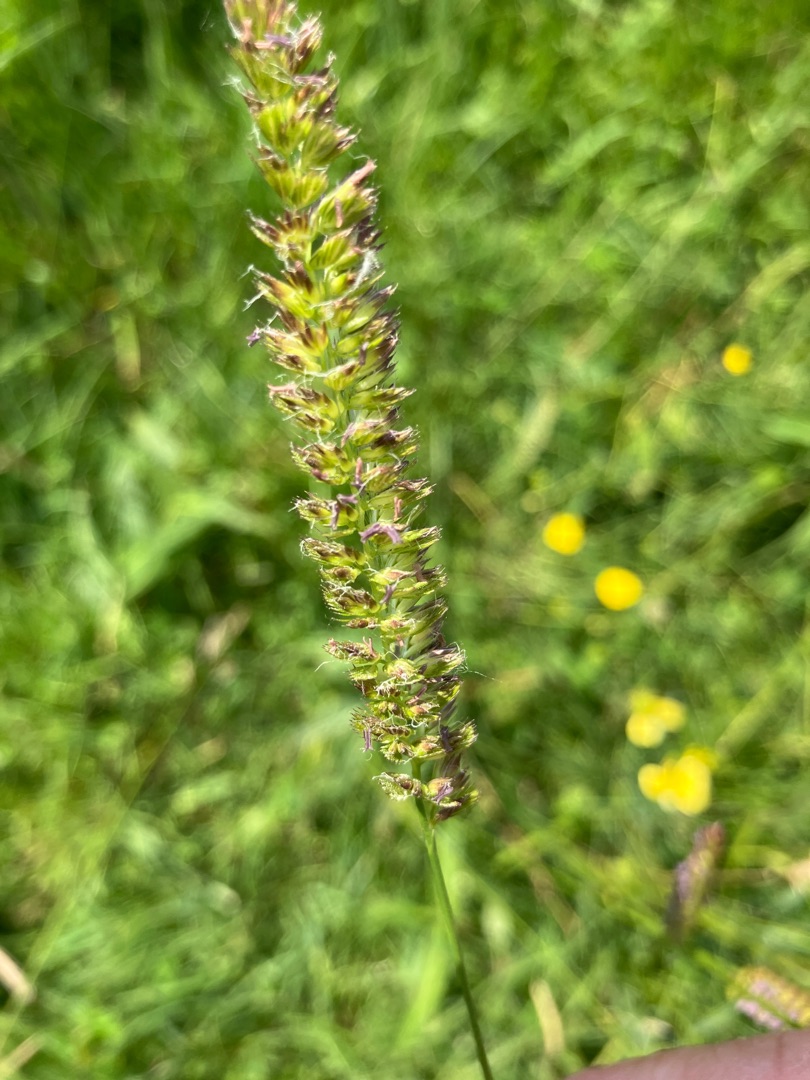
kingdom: Plantae
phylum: Tracheophyta
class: Liliopsida
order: Poales
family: Poaceae
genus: Cynosurus
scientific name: Cynosurus cristatus
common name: Kamgræs
